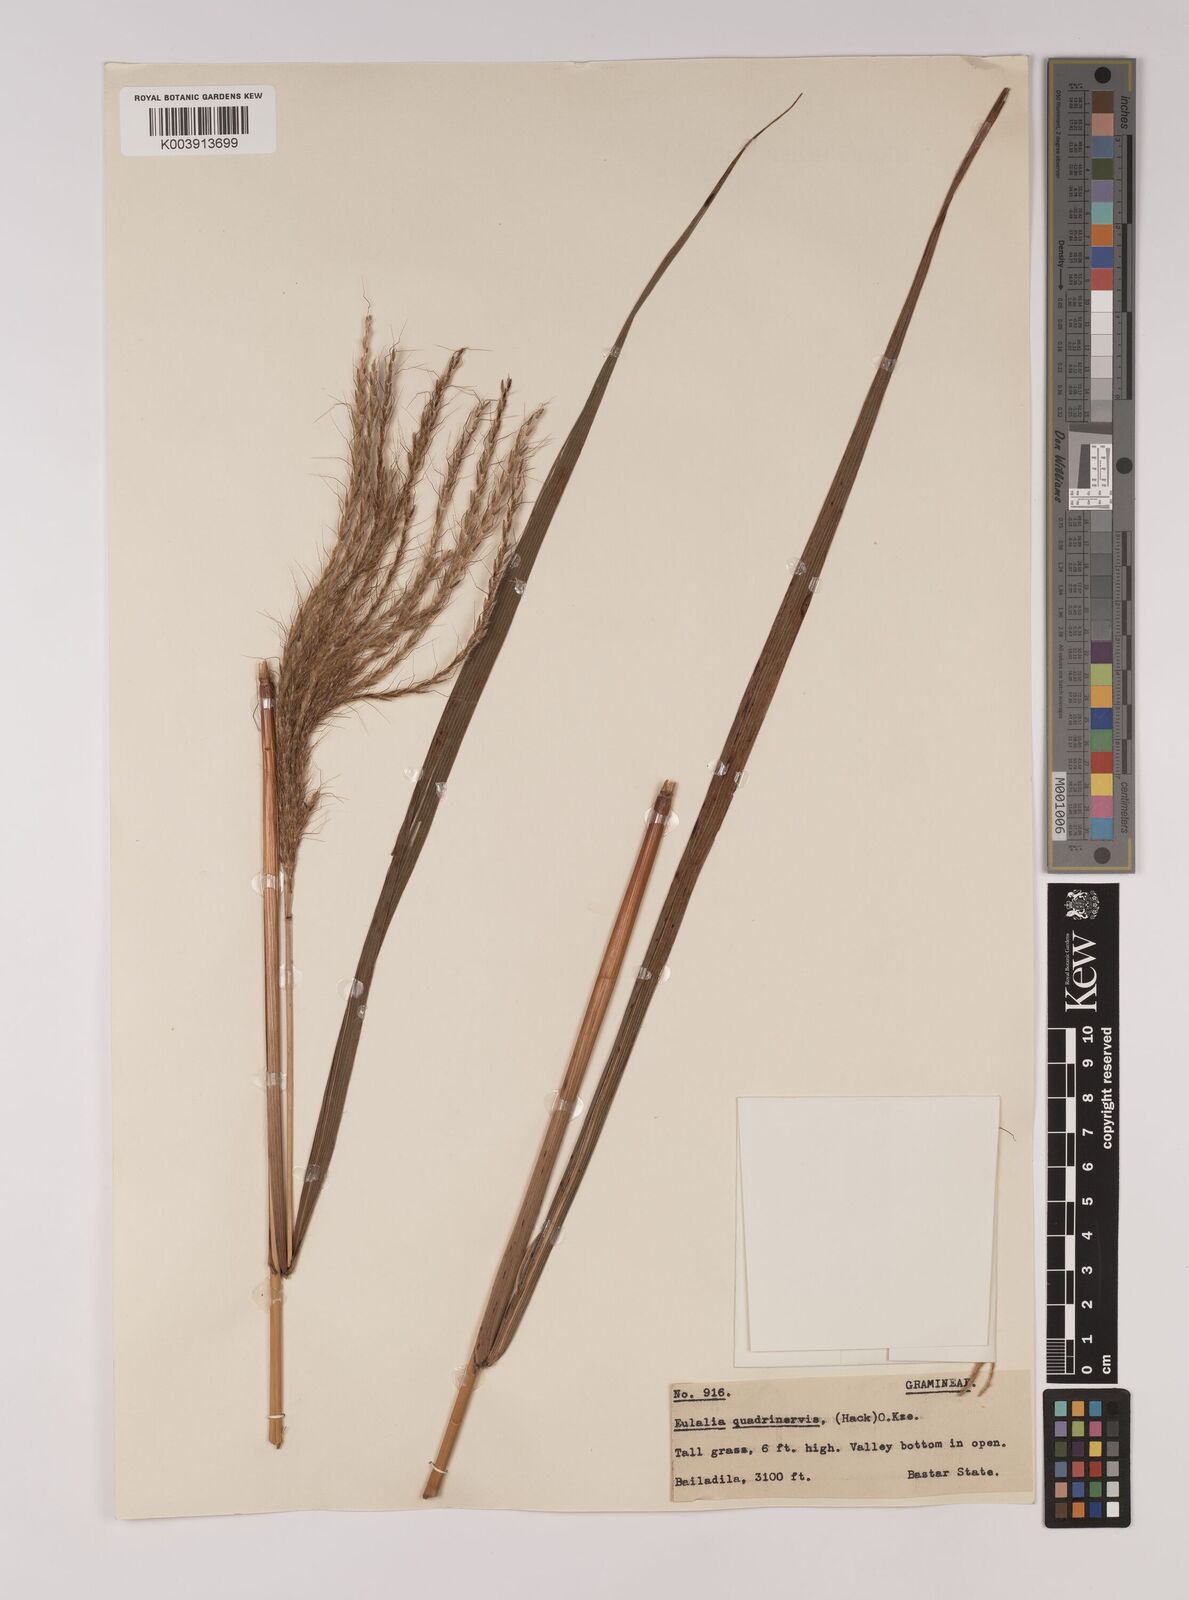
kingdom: Plantae
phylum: Tracheophyta
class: Liliopsida
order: Poales
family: Poaceae
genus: Pseudopogonatherum
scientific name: Pseudopogonatherum quadrinerve
